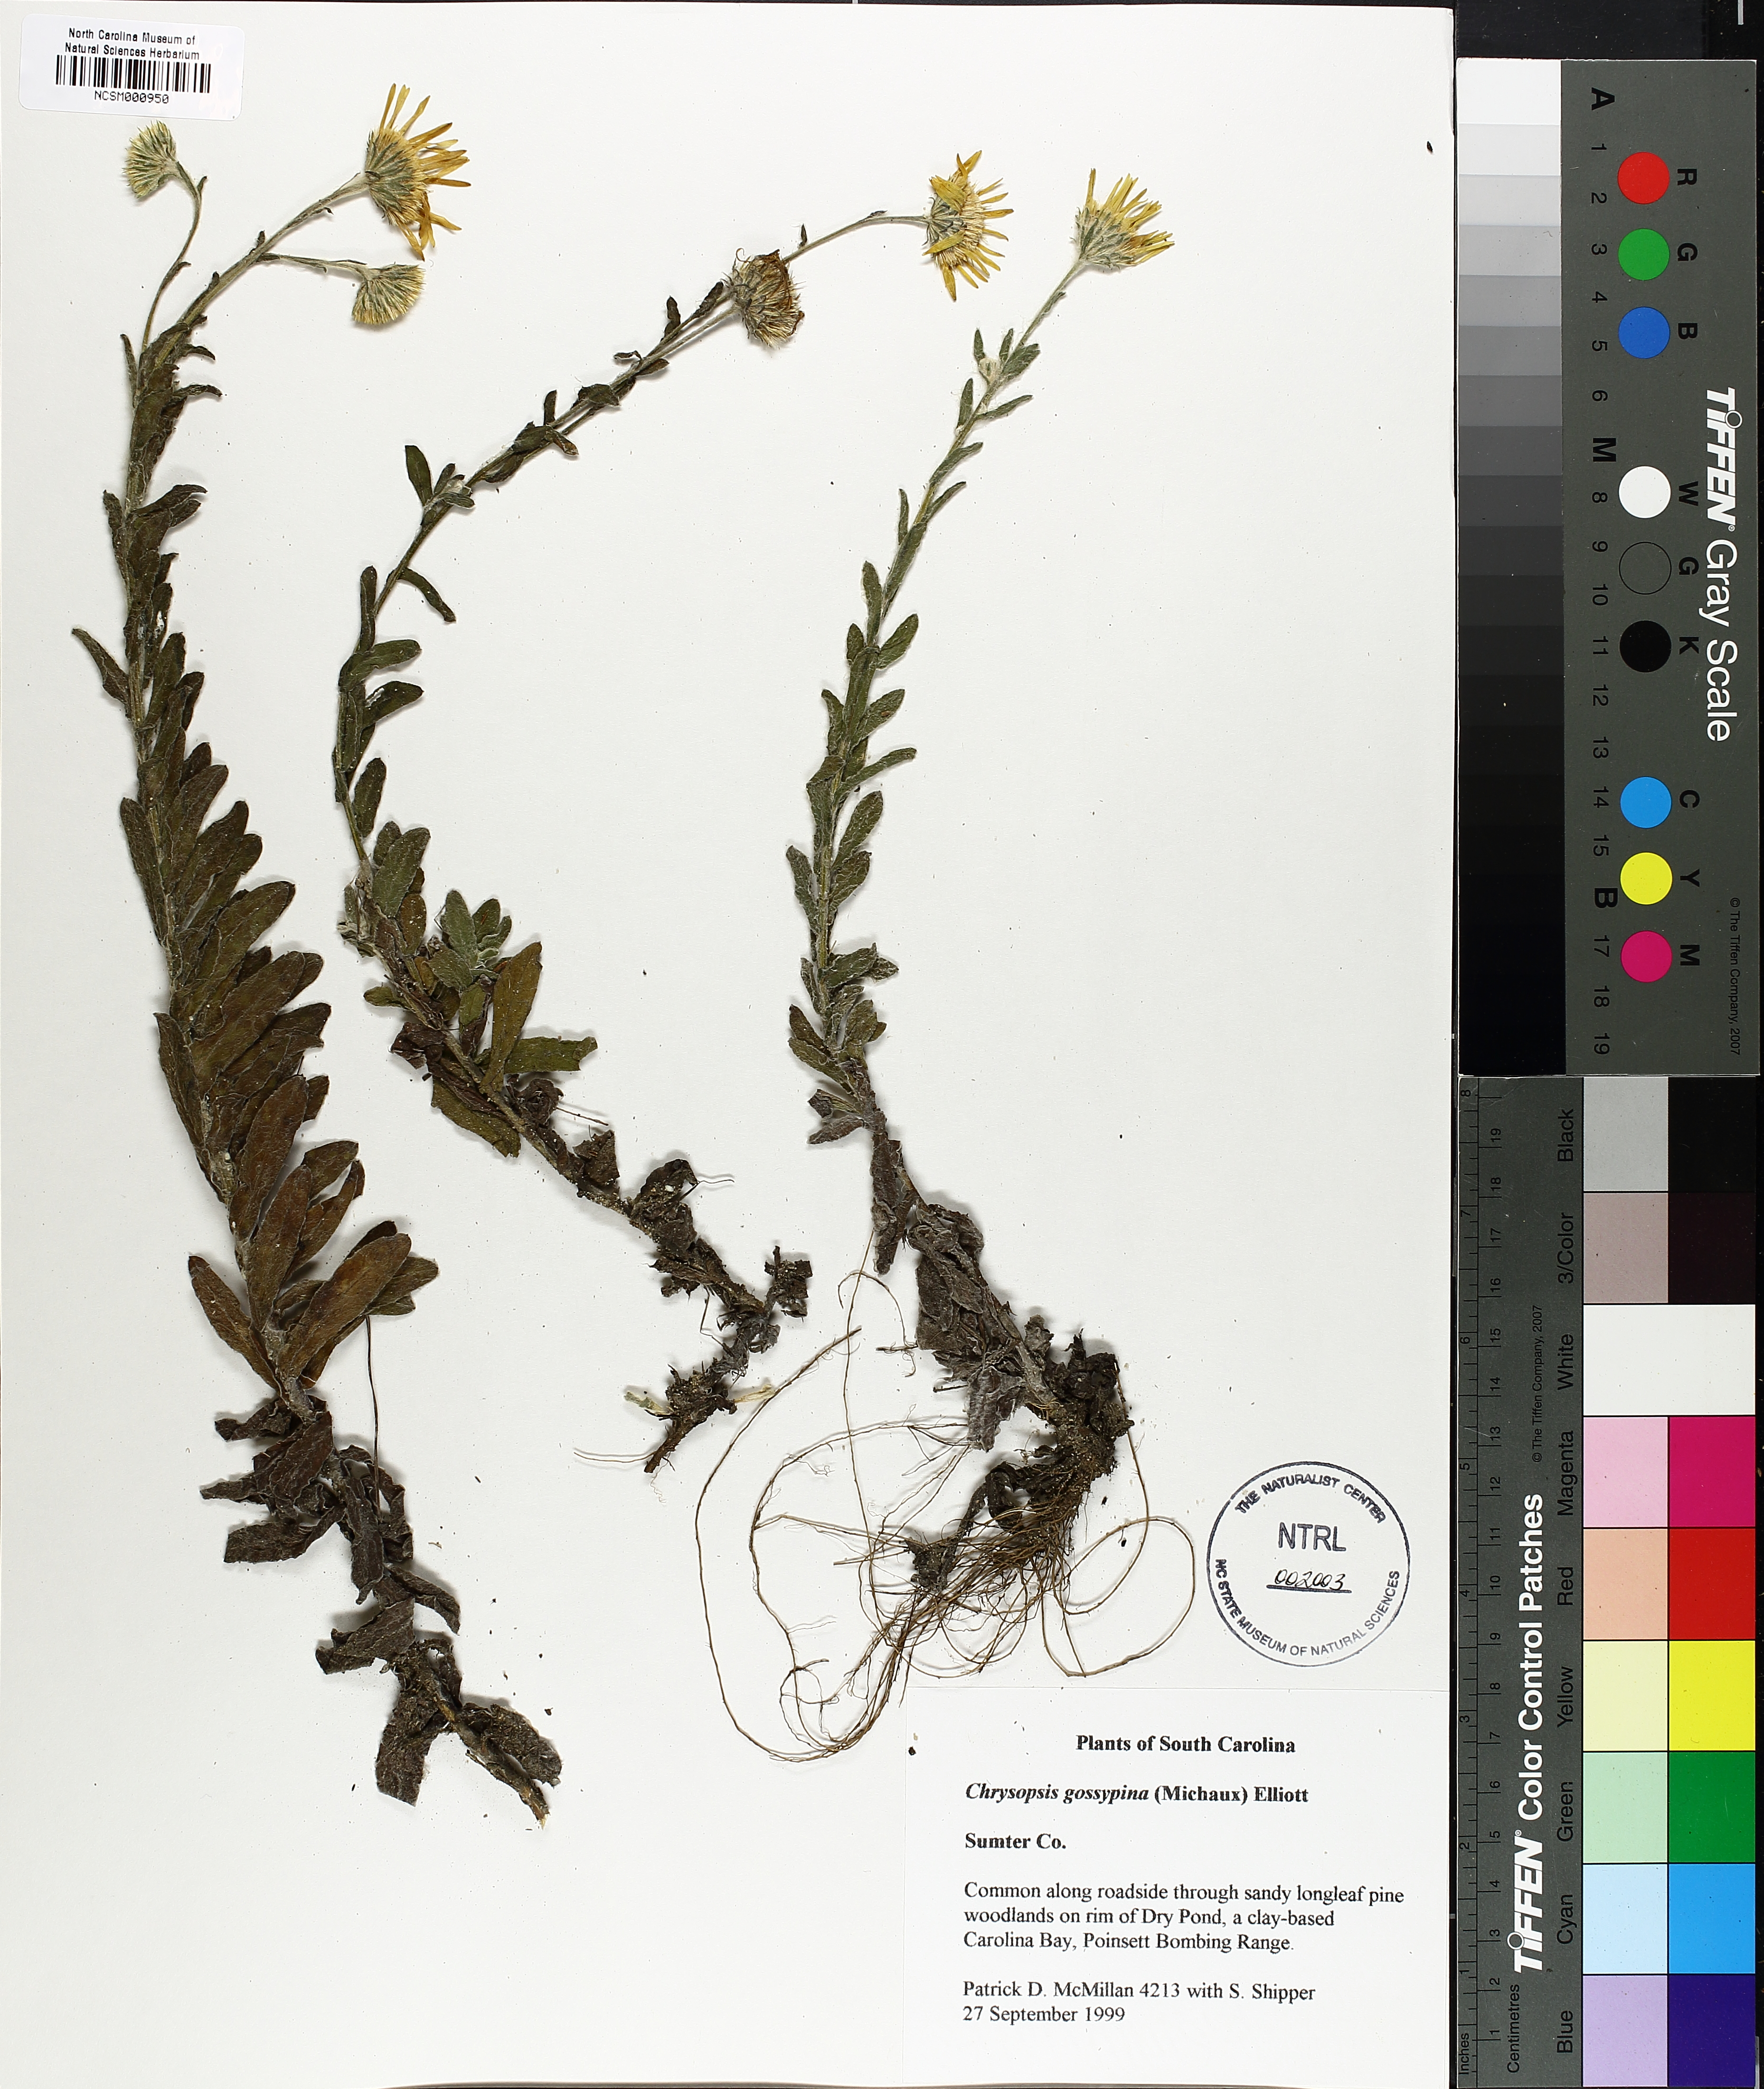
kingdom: Plantae
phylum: Tracheophyta
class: Magnoliopsida
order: Asterales
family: Asteraceae
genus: Chrysopsis
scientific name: Chrysopsis gossypina
